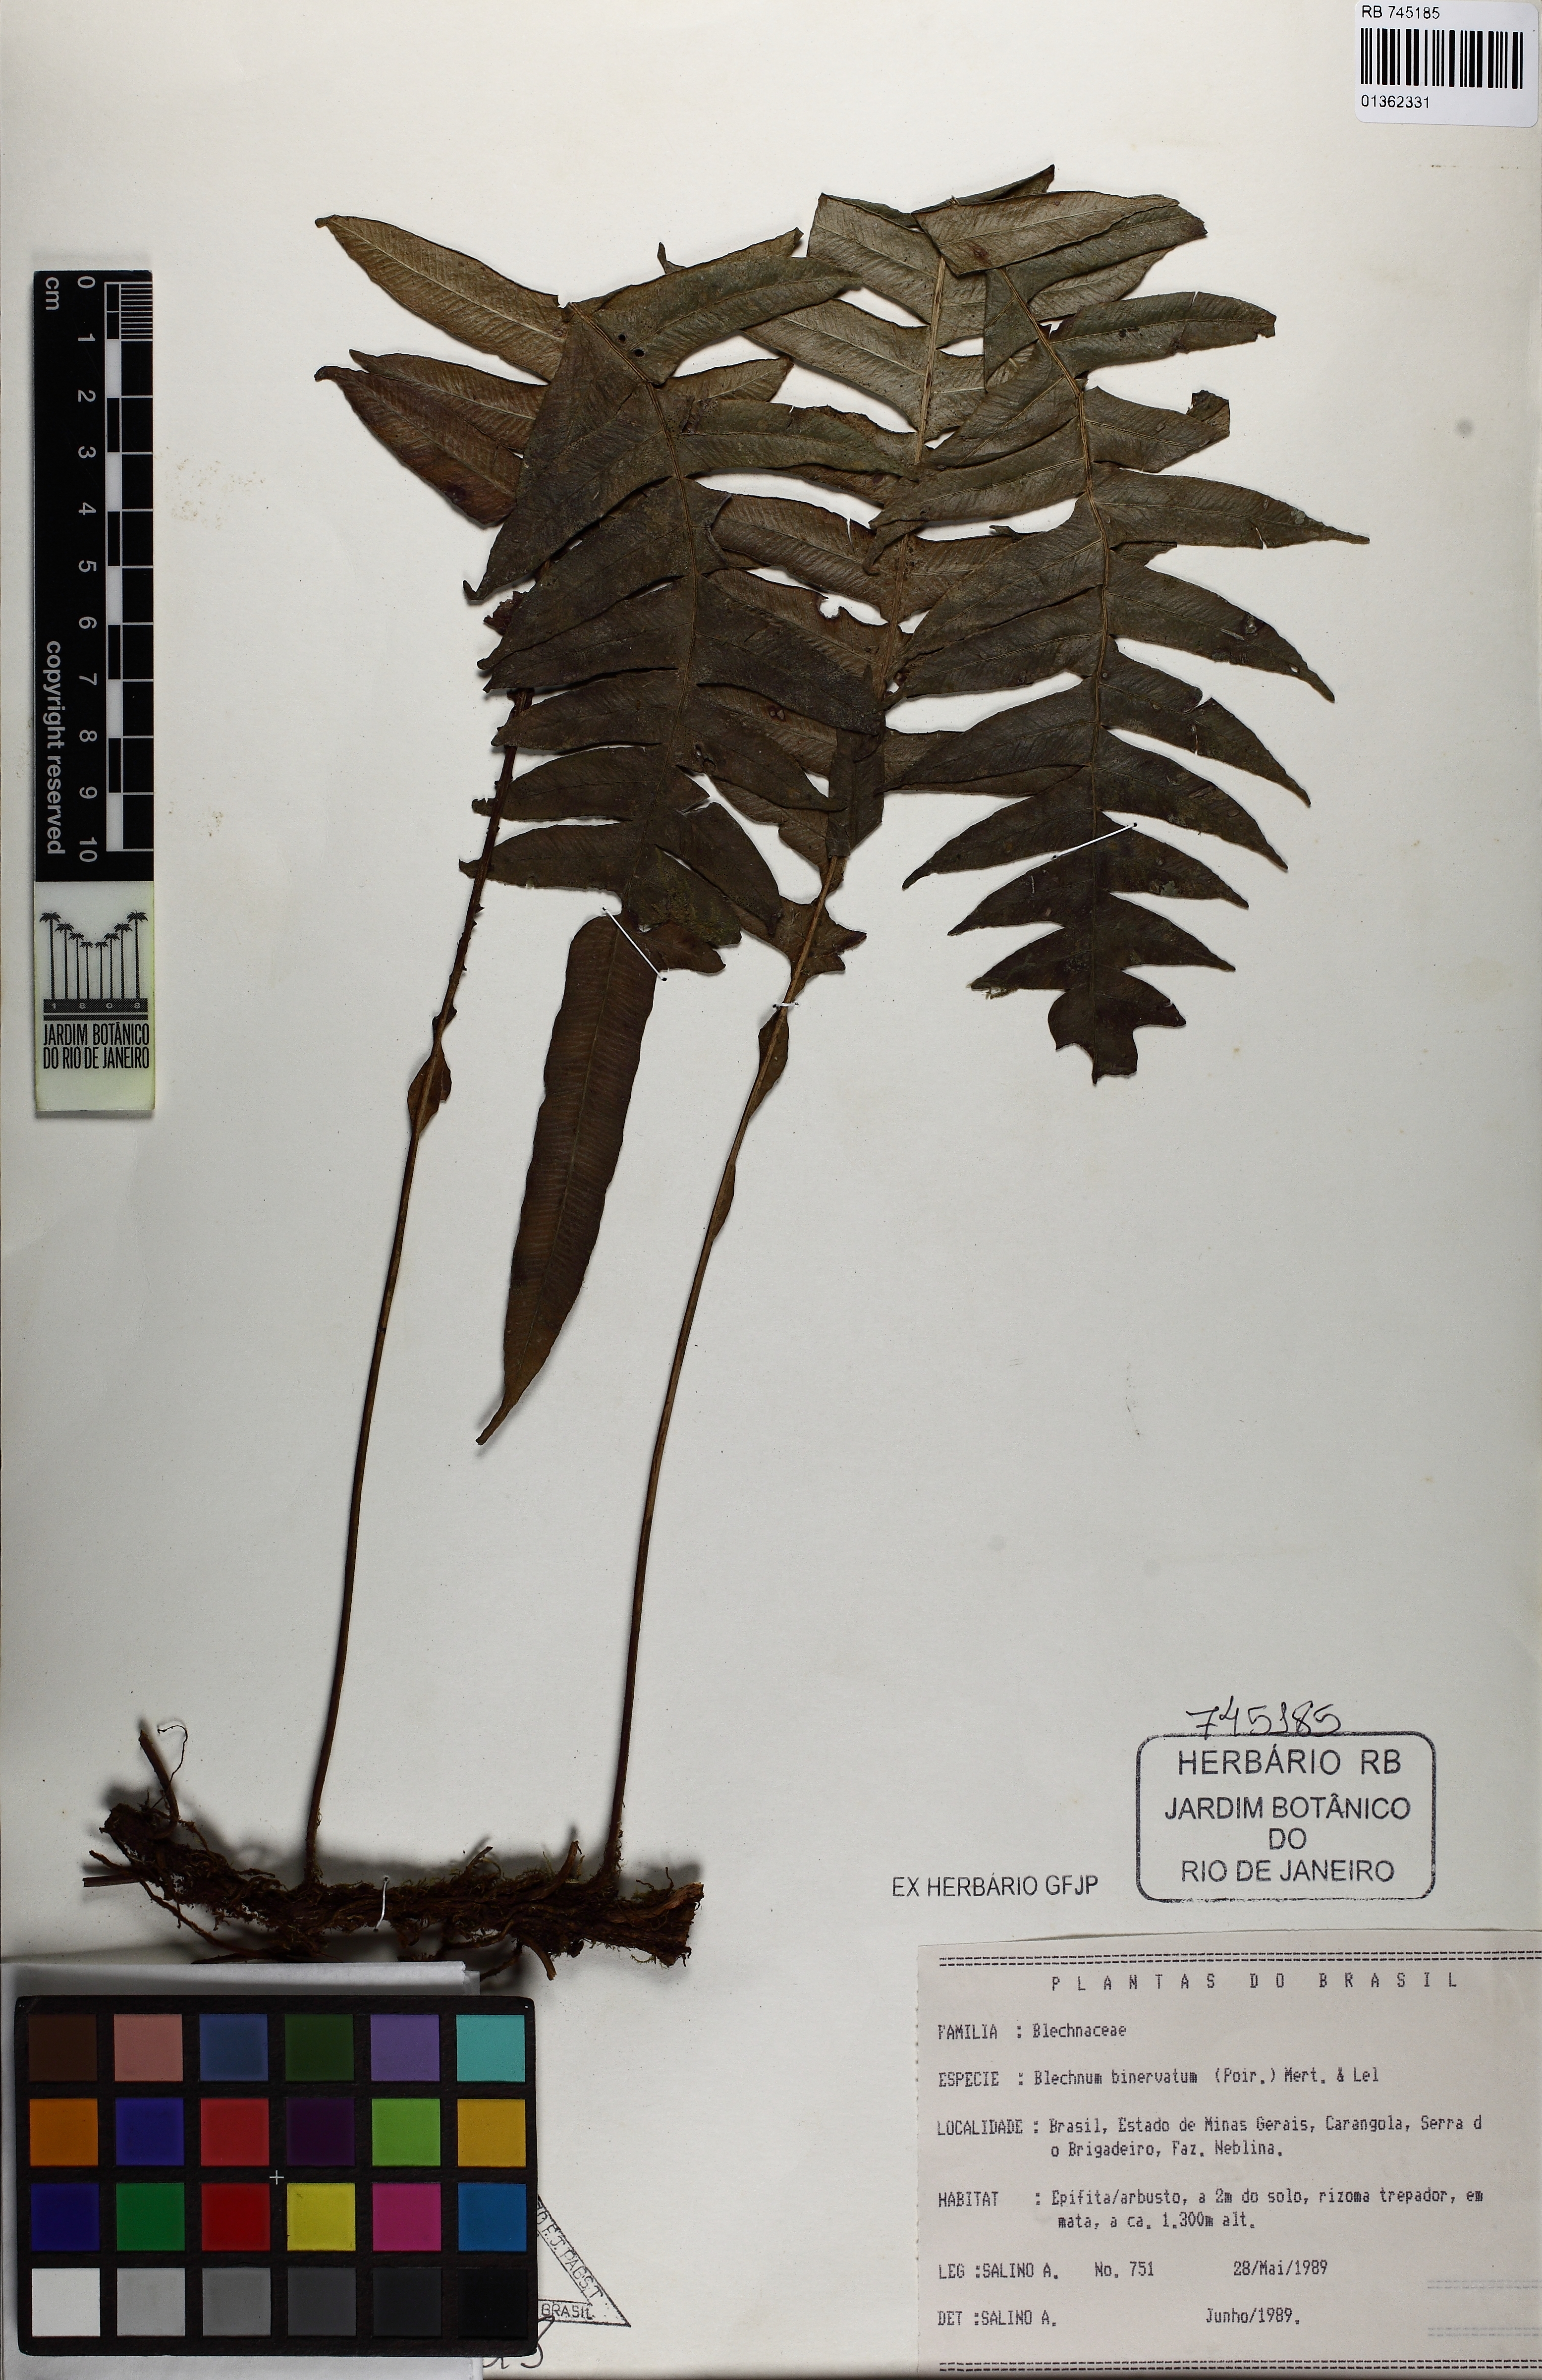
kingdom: Plantae
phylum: Tracheophyta
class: Polypodiopsida
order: Polypodiales
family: Blechnaceae
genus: Lomaridium
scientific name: Lomaridium binervatum
